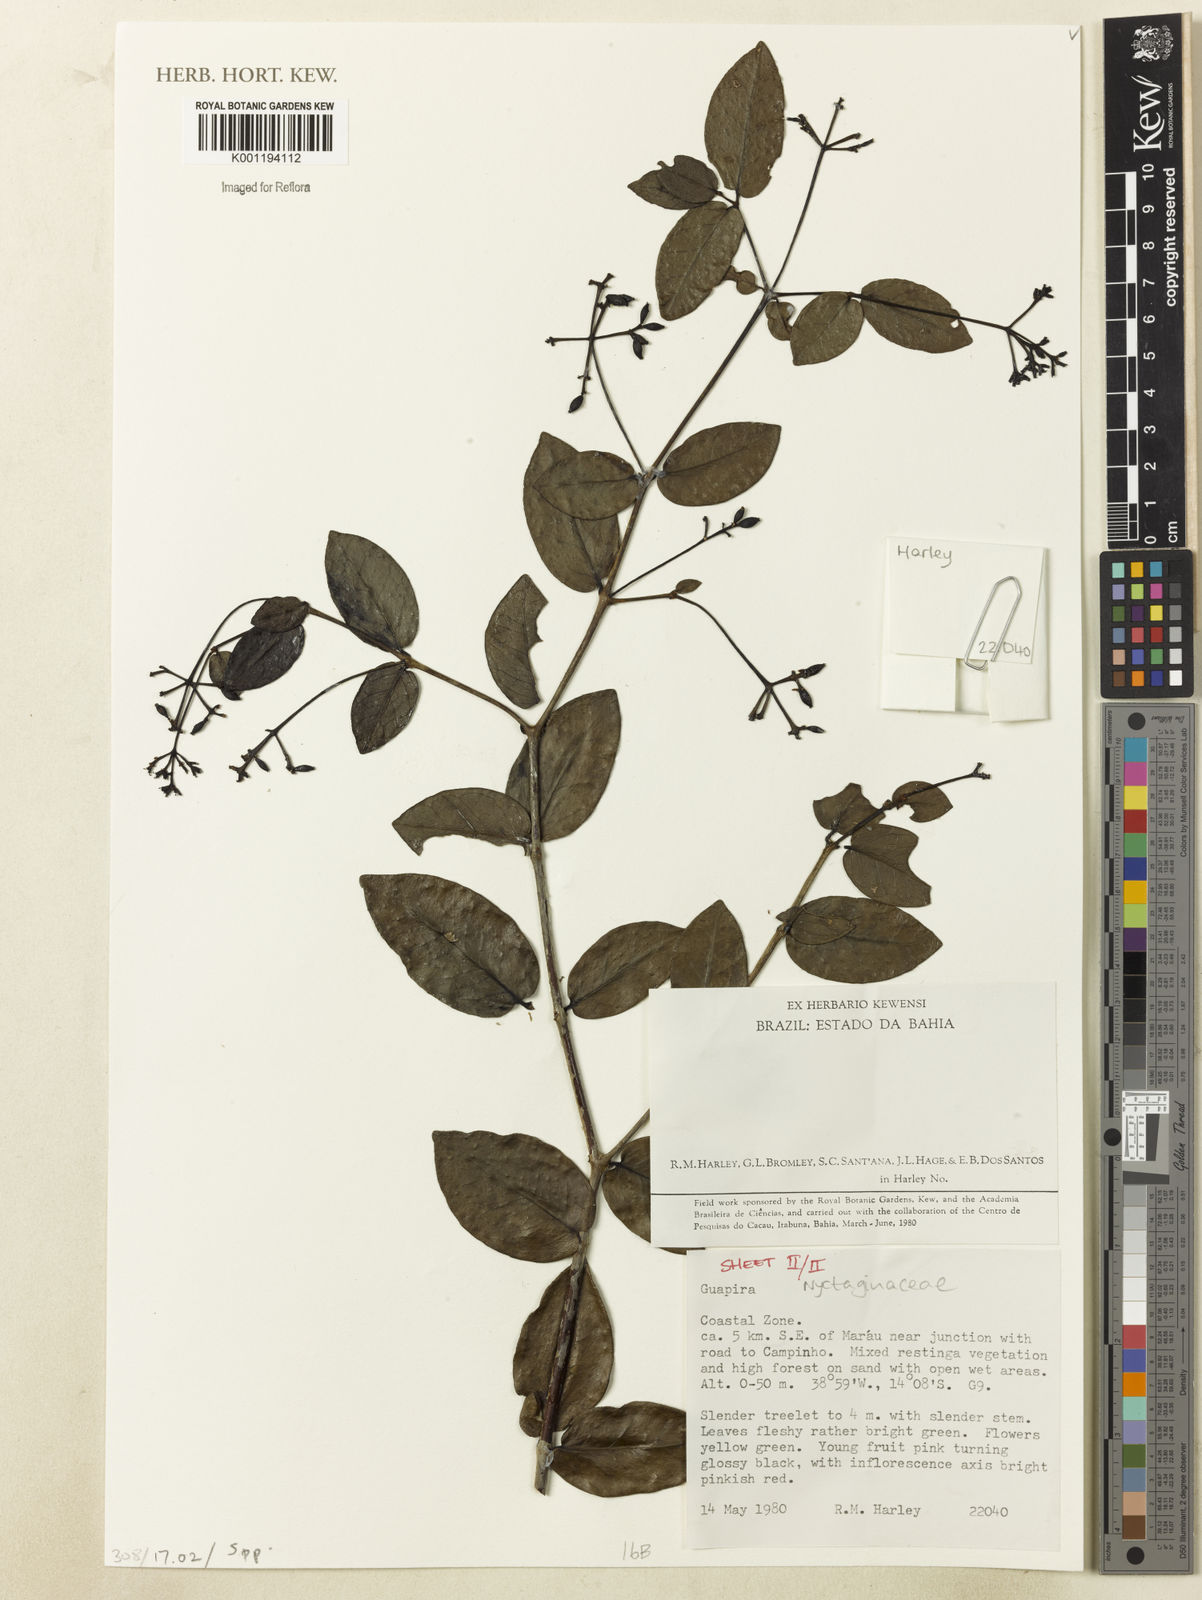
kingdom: Plantae
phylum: Tracheophyta
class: Magnoliopsida
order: Caryophyllales
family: Nyctaginaceae
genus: Guapira
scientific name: Guapira
